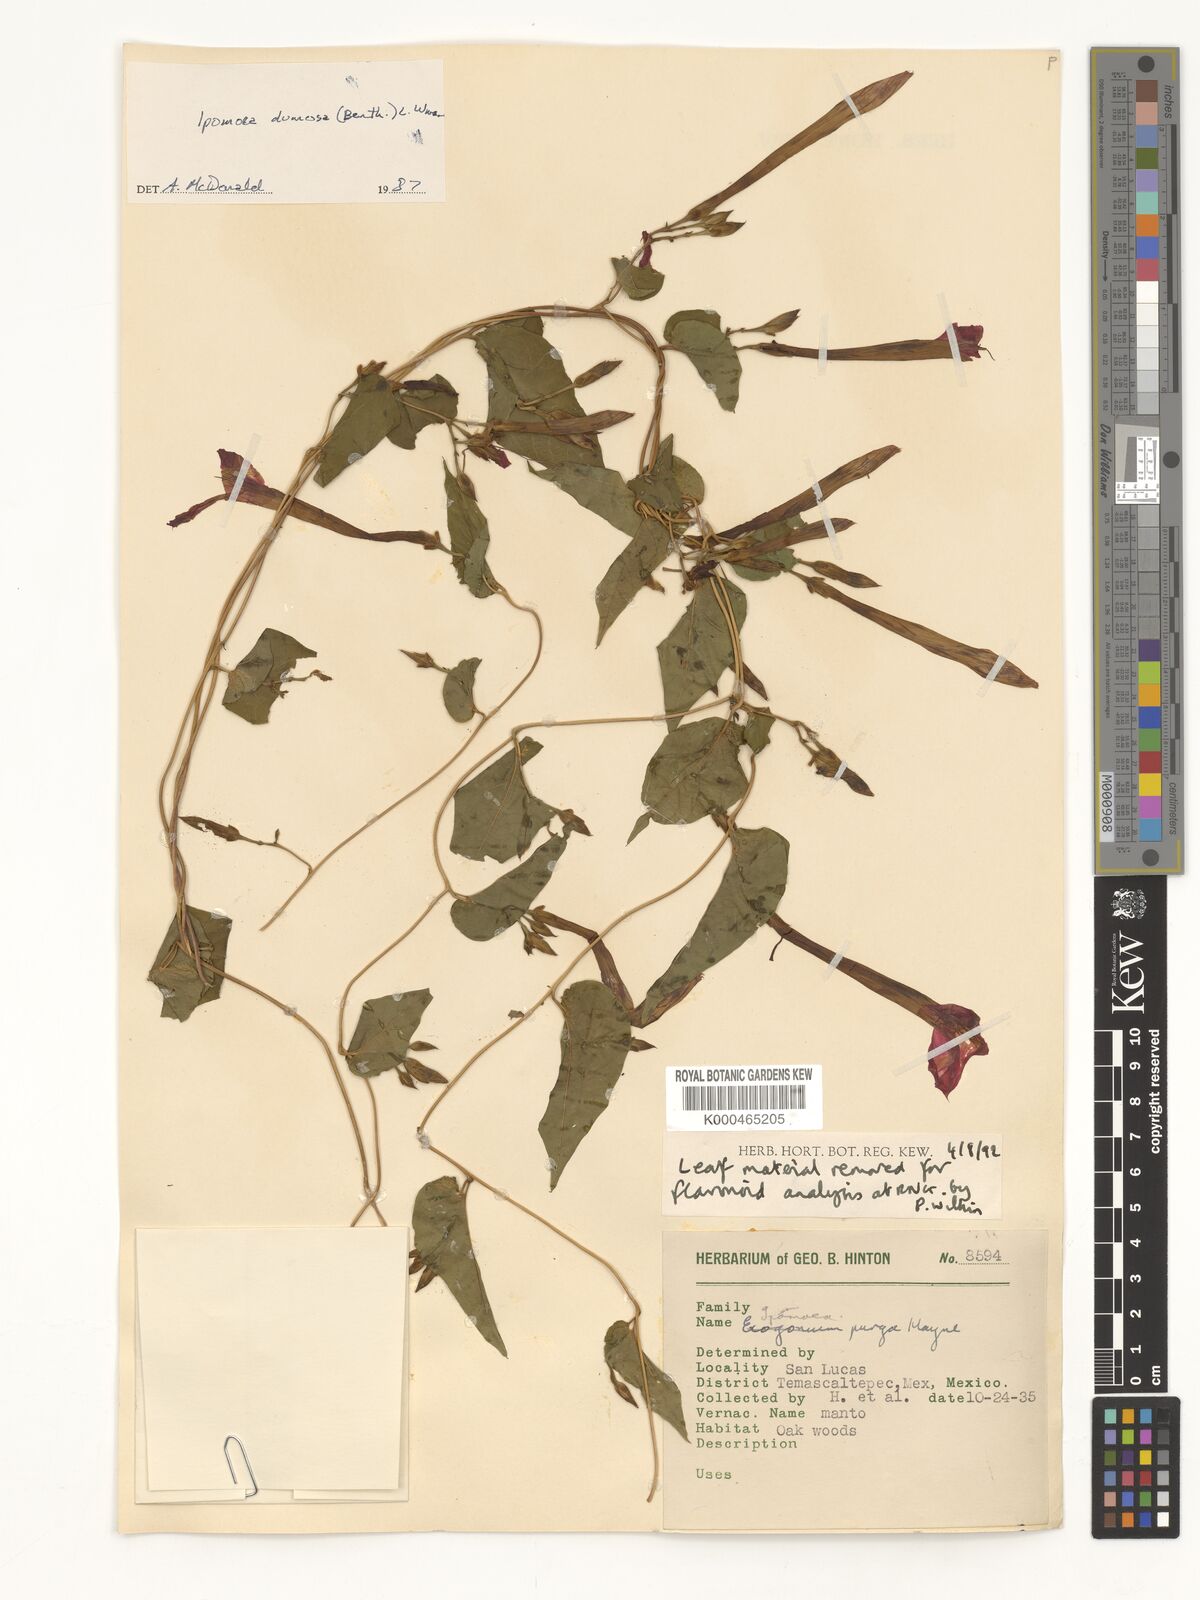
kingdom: Plantae
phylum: Tracheophyta
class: Magnoliopsida
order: Solanales
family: Convolvulaceae
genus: Ipomoea
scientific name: Ipomoea dumosa
